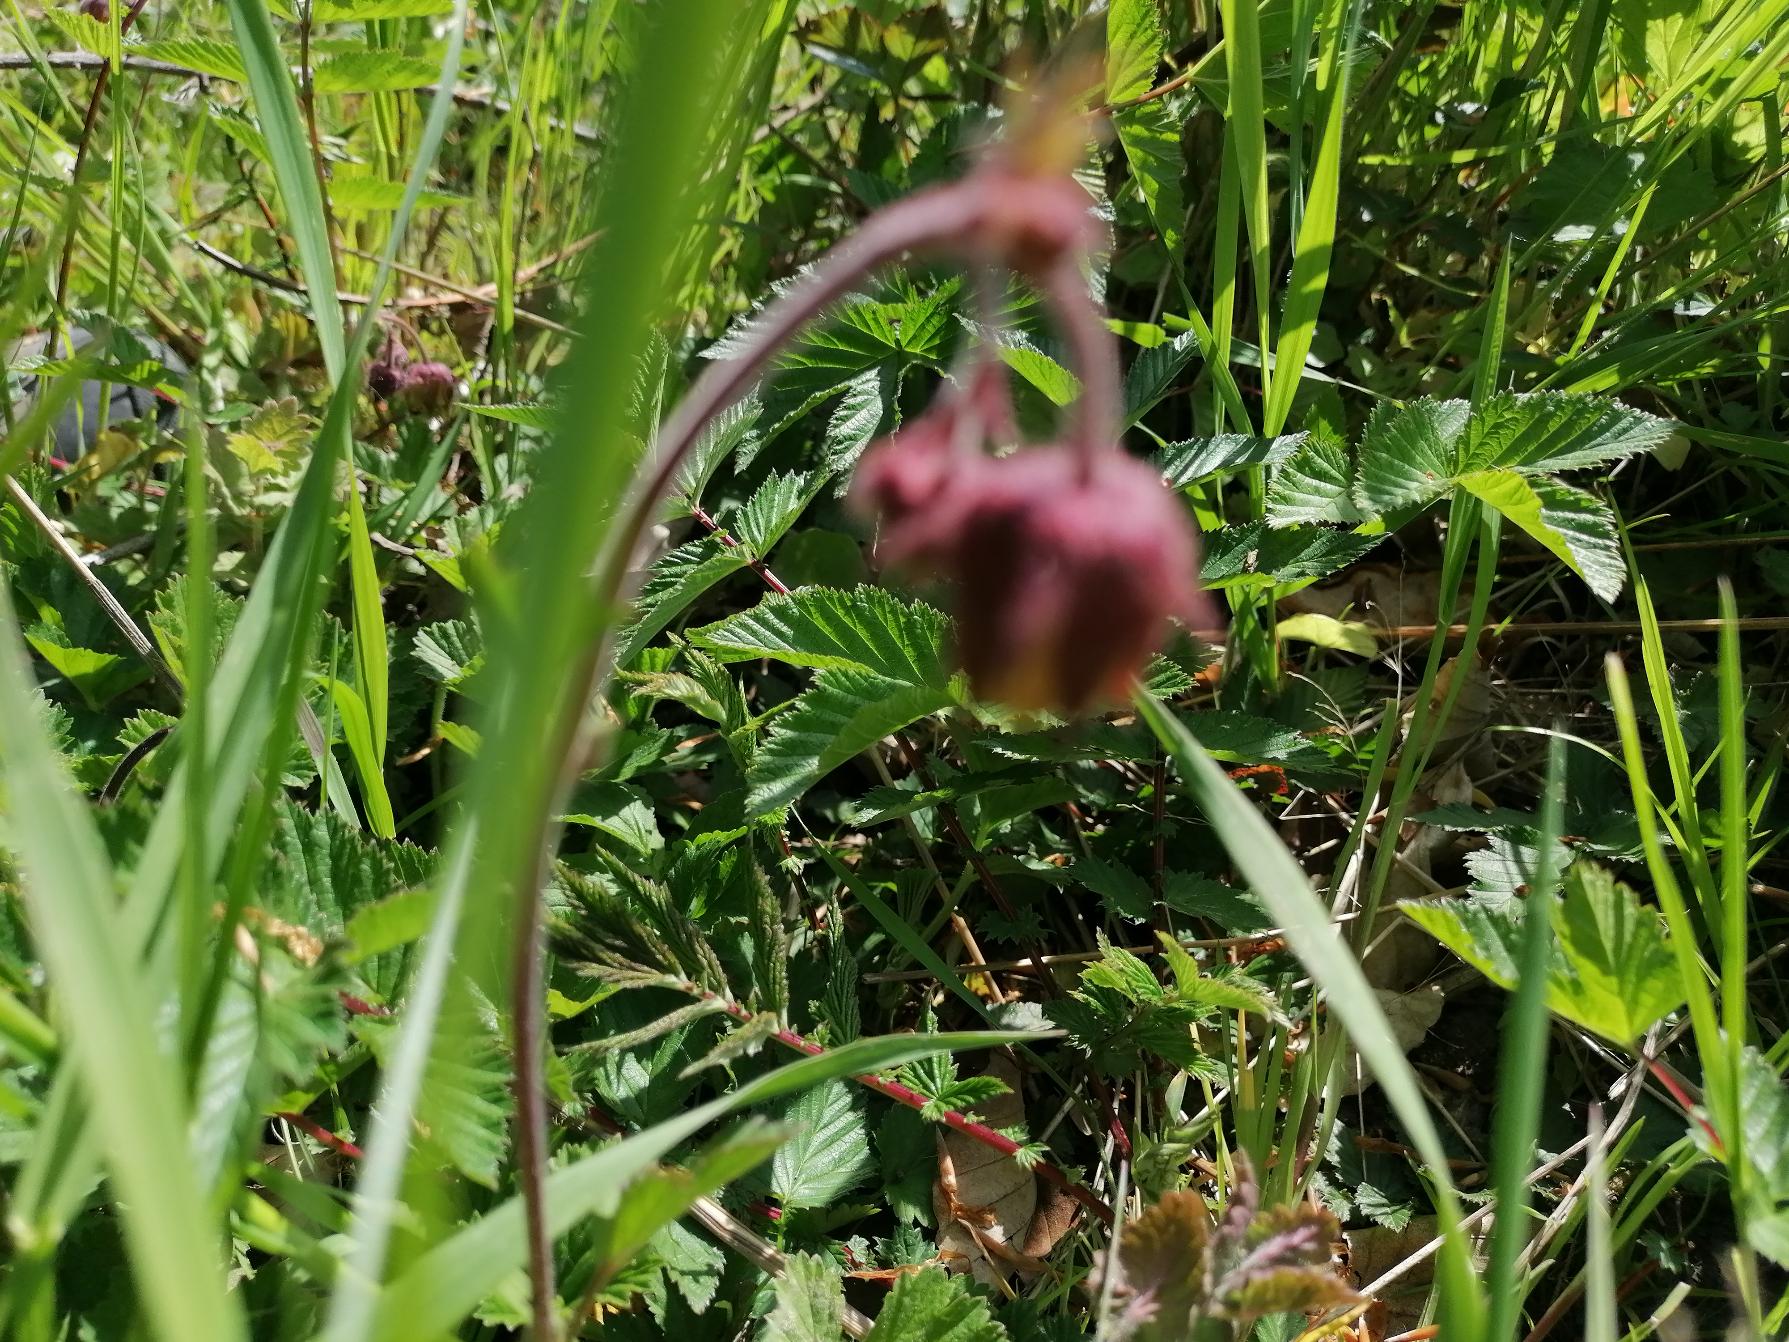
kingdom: Plantae
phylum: Tracheophyta
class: Magnoliopsida
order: Rosales
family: Rosaceae
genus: Geum
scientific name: Geum rivale
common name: Eng-nellikerod
